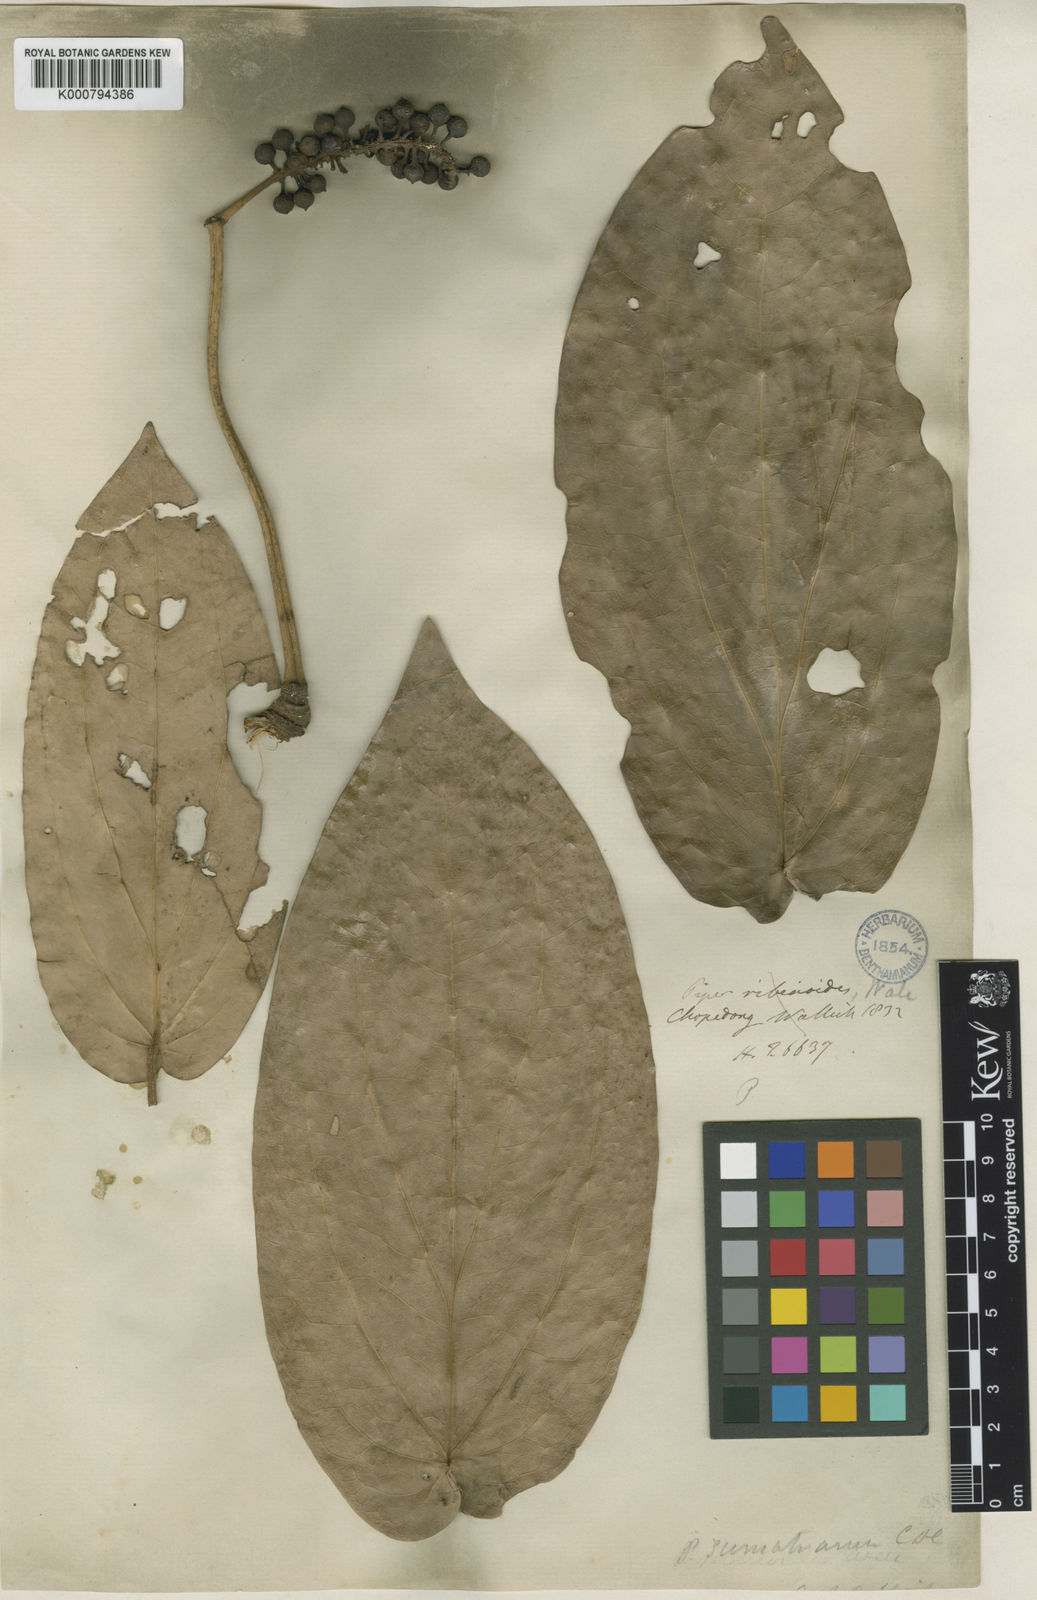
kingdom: Plantae
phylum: Tracheophyta
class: Magnoliopsida
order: Piperales
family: Piperaceae
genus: Piper
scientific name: Piper ribesioides
